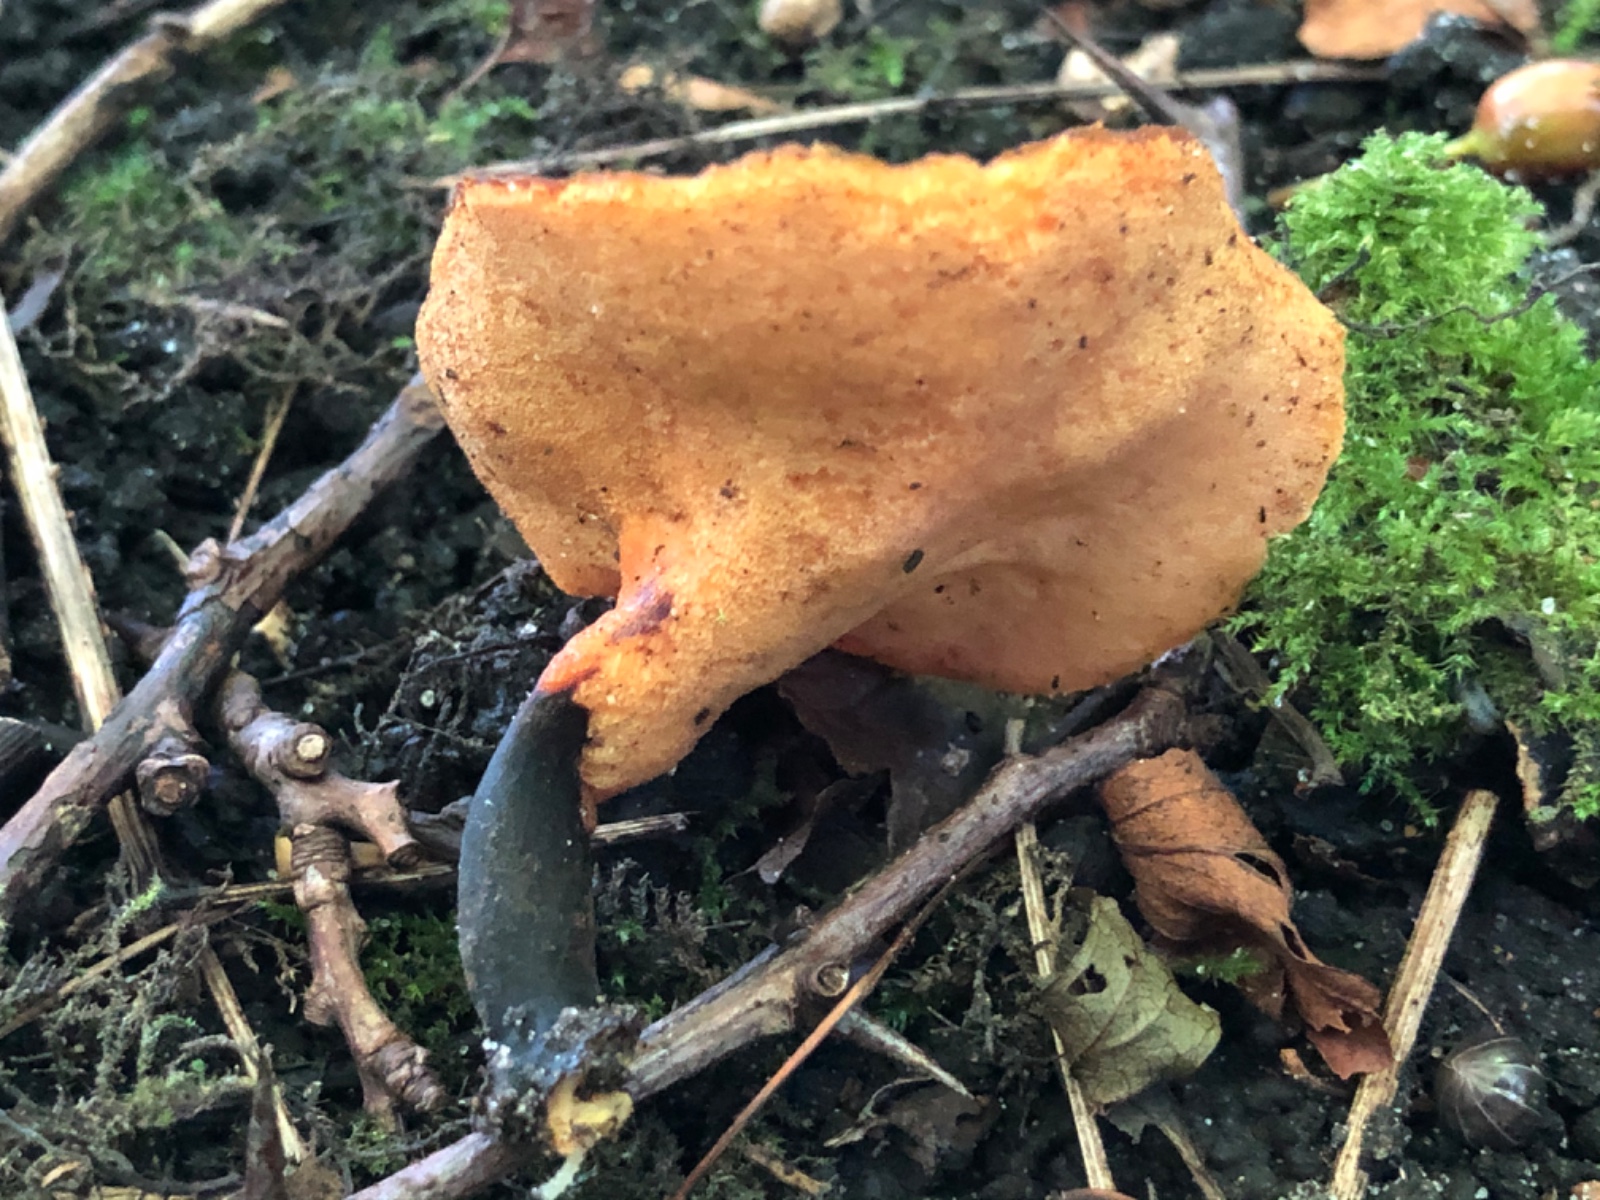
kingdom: Fungi
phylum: Basidiomycota
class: Agaricomycetes
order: Polyporales
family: Polyporaceae
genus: Picipes
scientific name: Picipes
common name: stilkporesvamp
